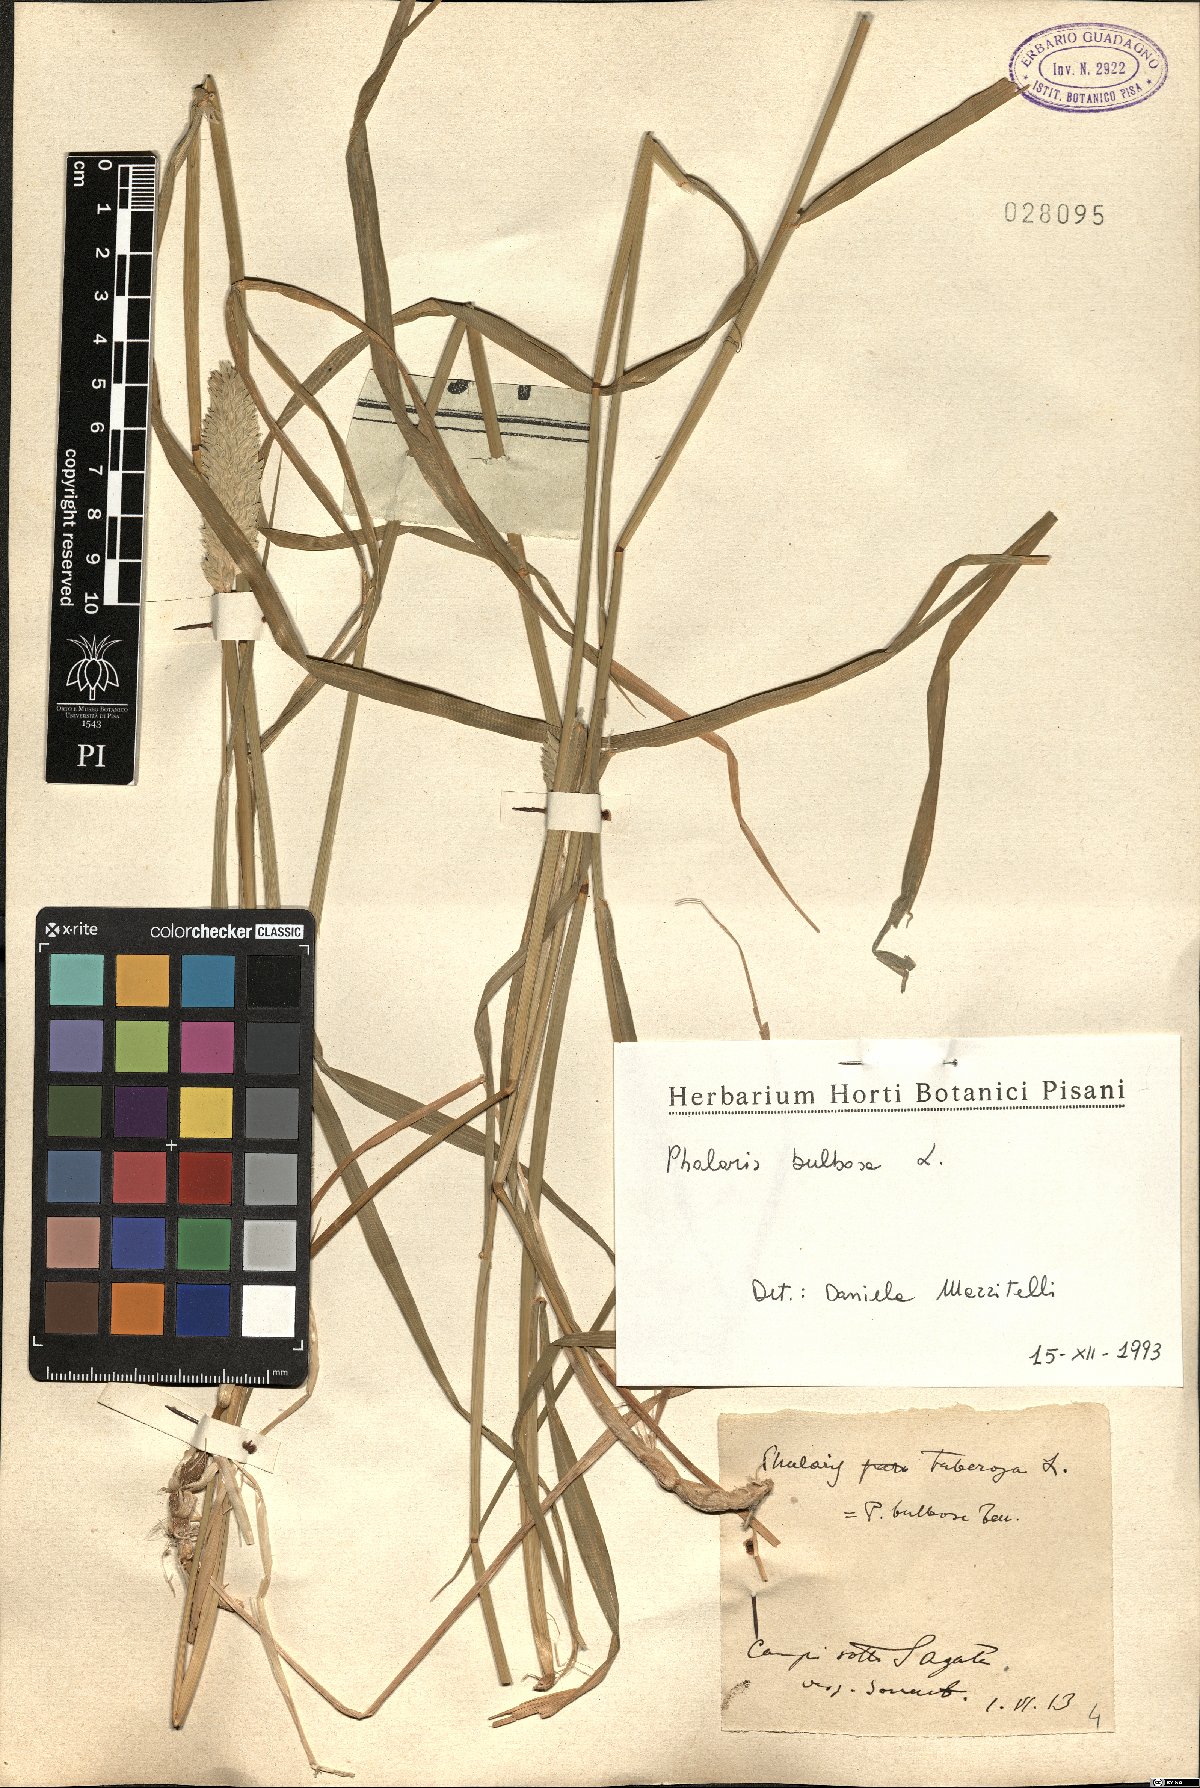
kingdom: Plantae
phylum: Tracheophyta
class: Liliopsida
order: Poales
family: Poaceae
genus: Phleum
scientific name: Phleum subulatum
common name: Italian timothy
